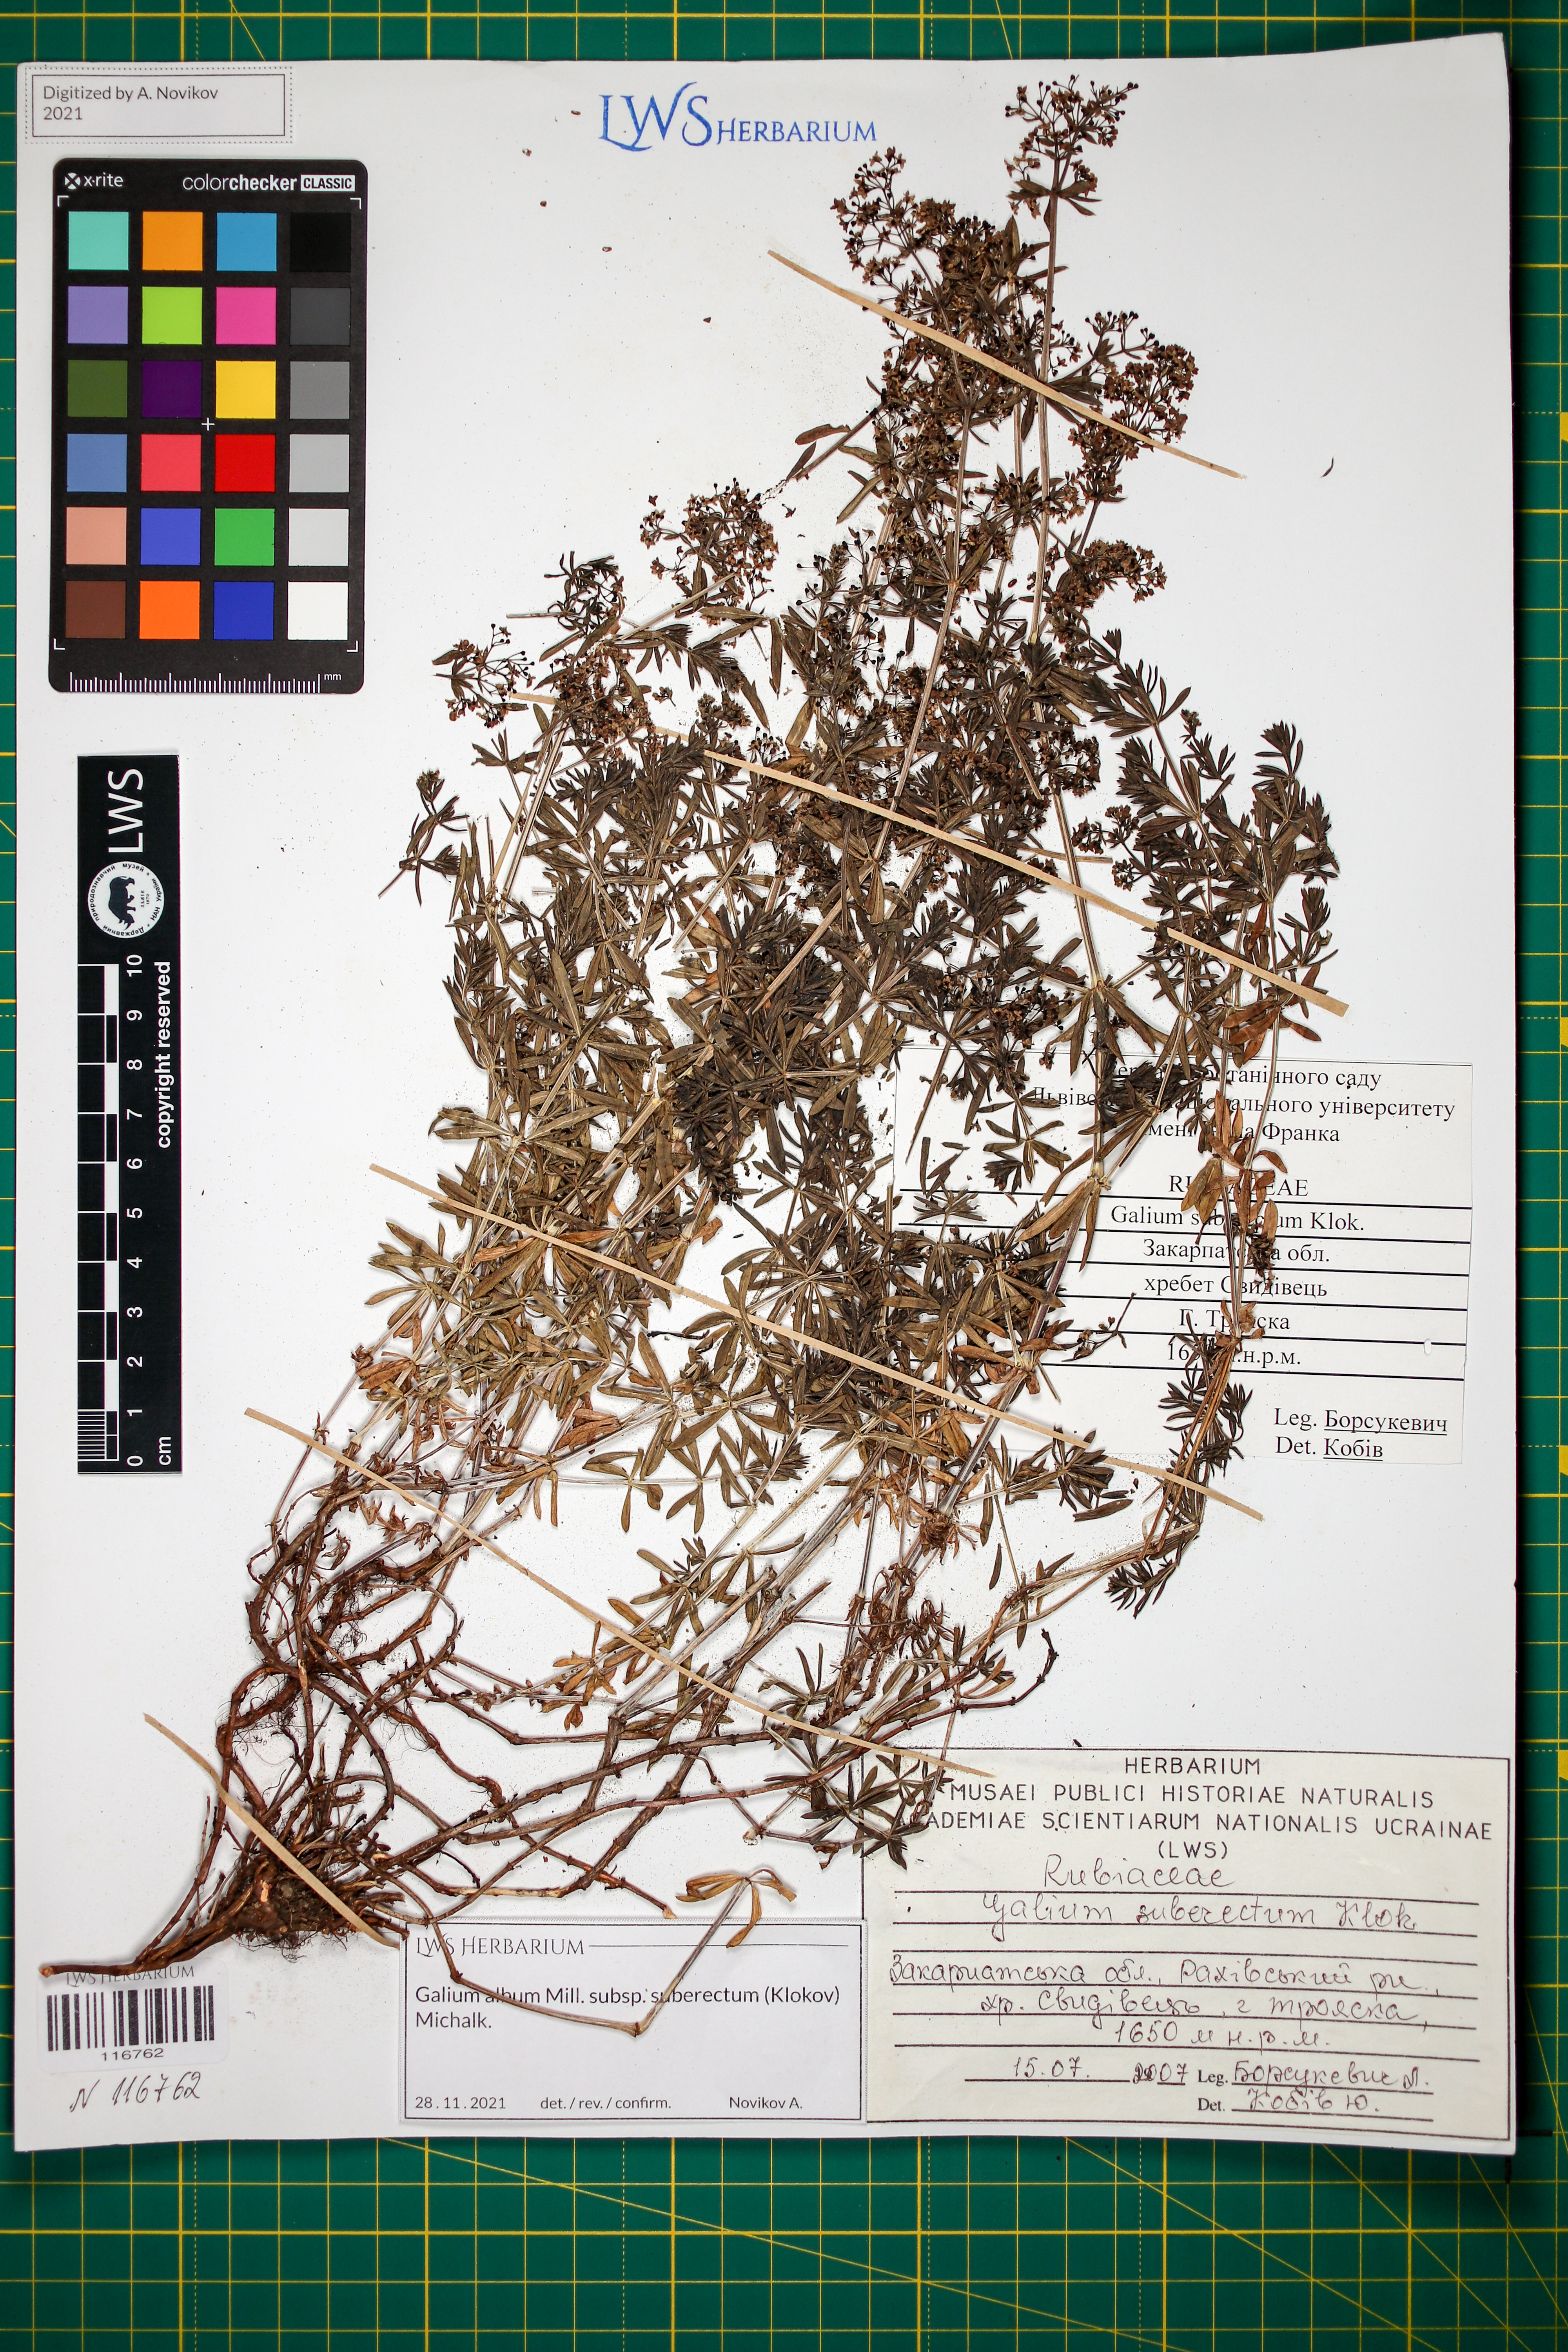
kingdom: Plantae
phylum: Tracheophyta
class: Magnoliopsida
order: Gentianales
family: Rubiaceae
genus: Galium
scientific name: Galium album
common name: White bedstraw
